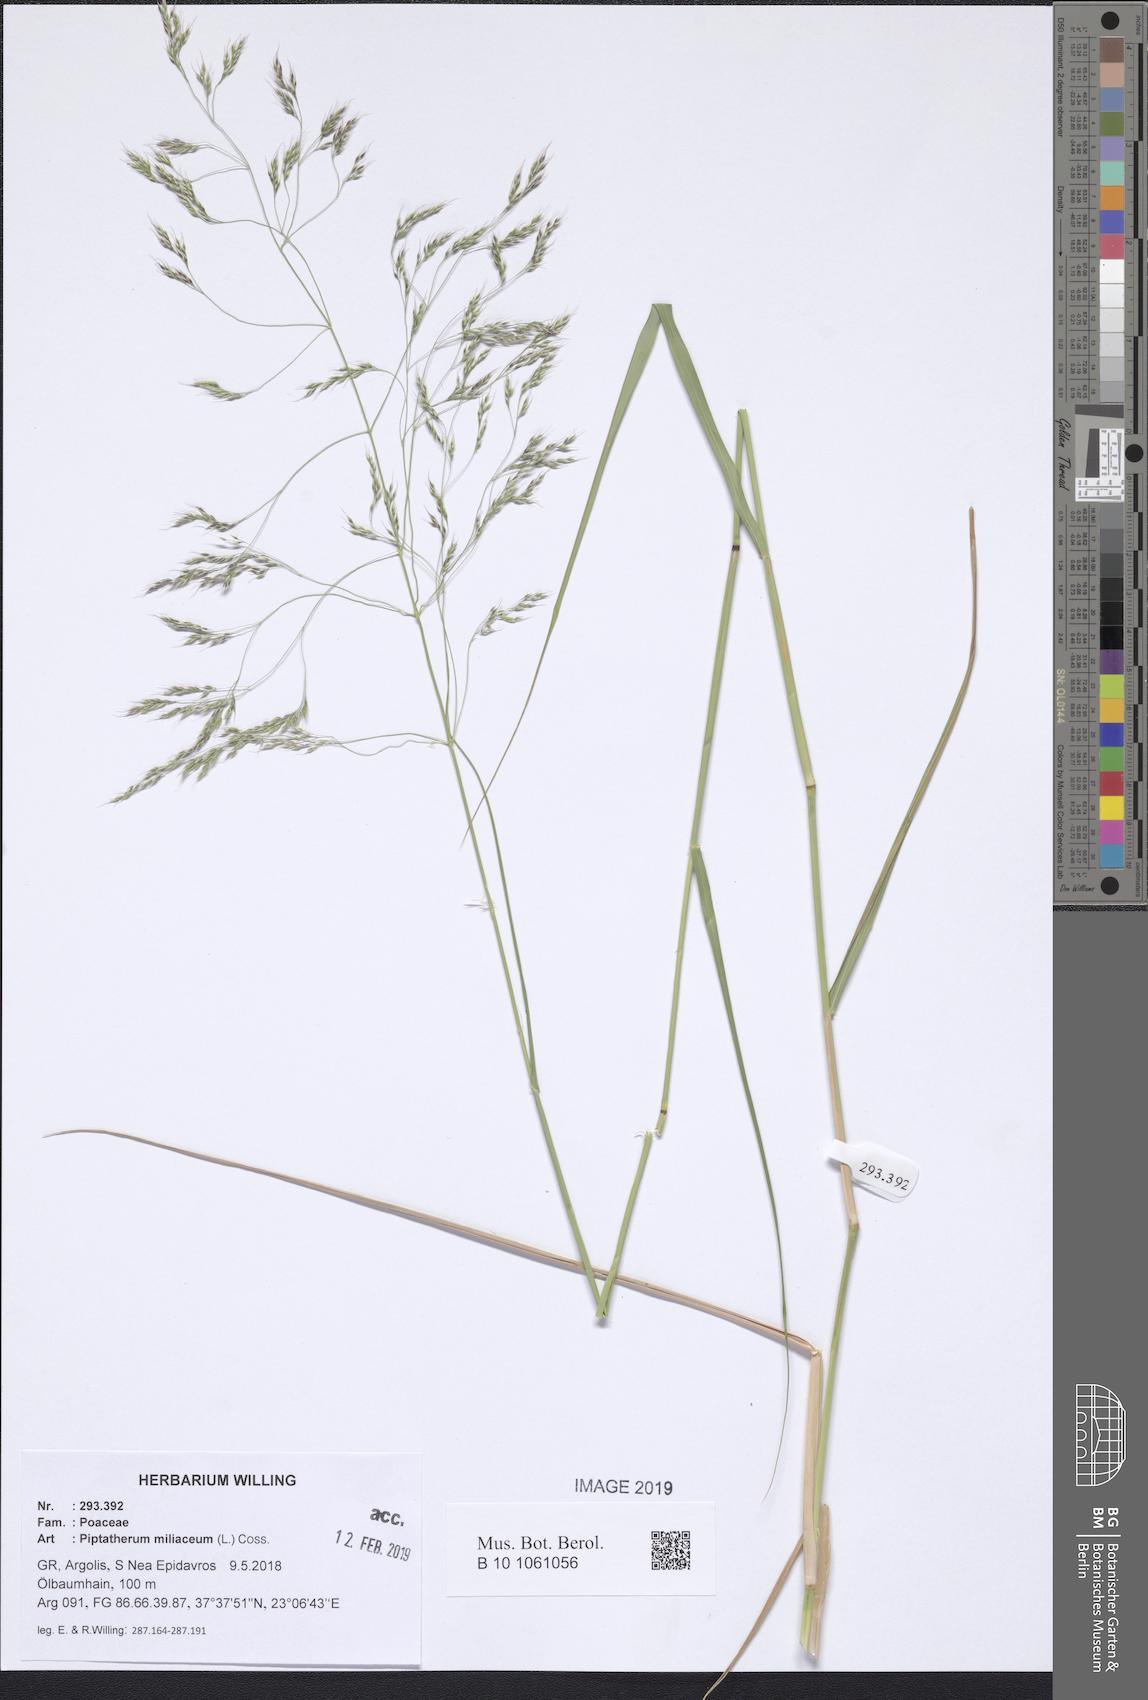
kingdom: Plantae
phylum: Tracheophyta
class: Liliopsida
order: Poales
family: Poaceae
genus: Oloptum
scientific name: Oloptum miliaceum
